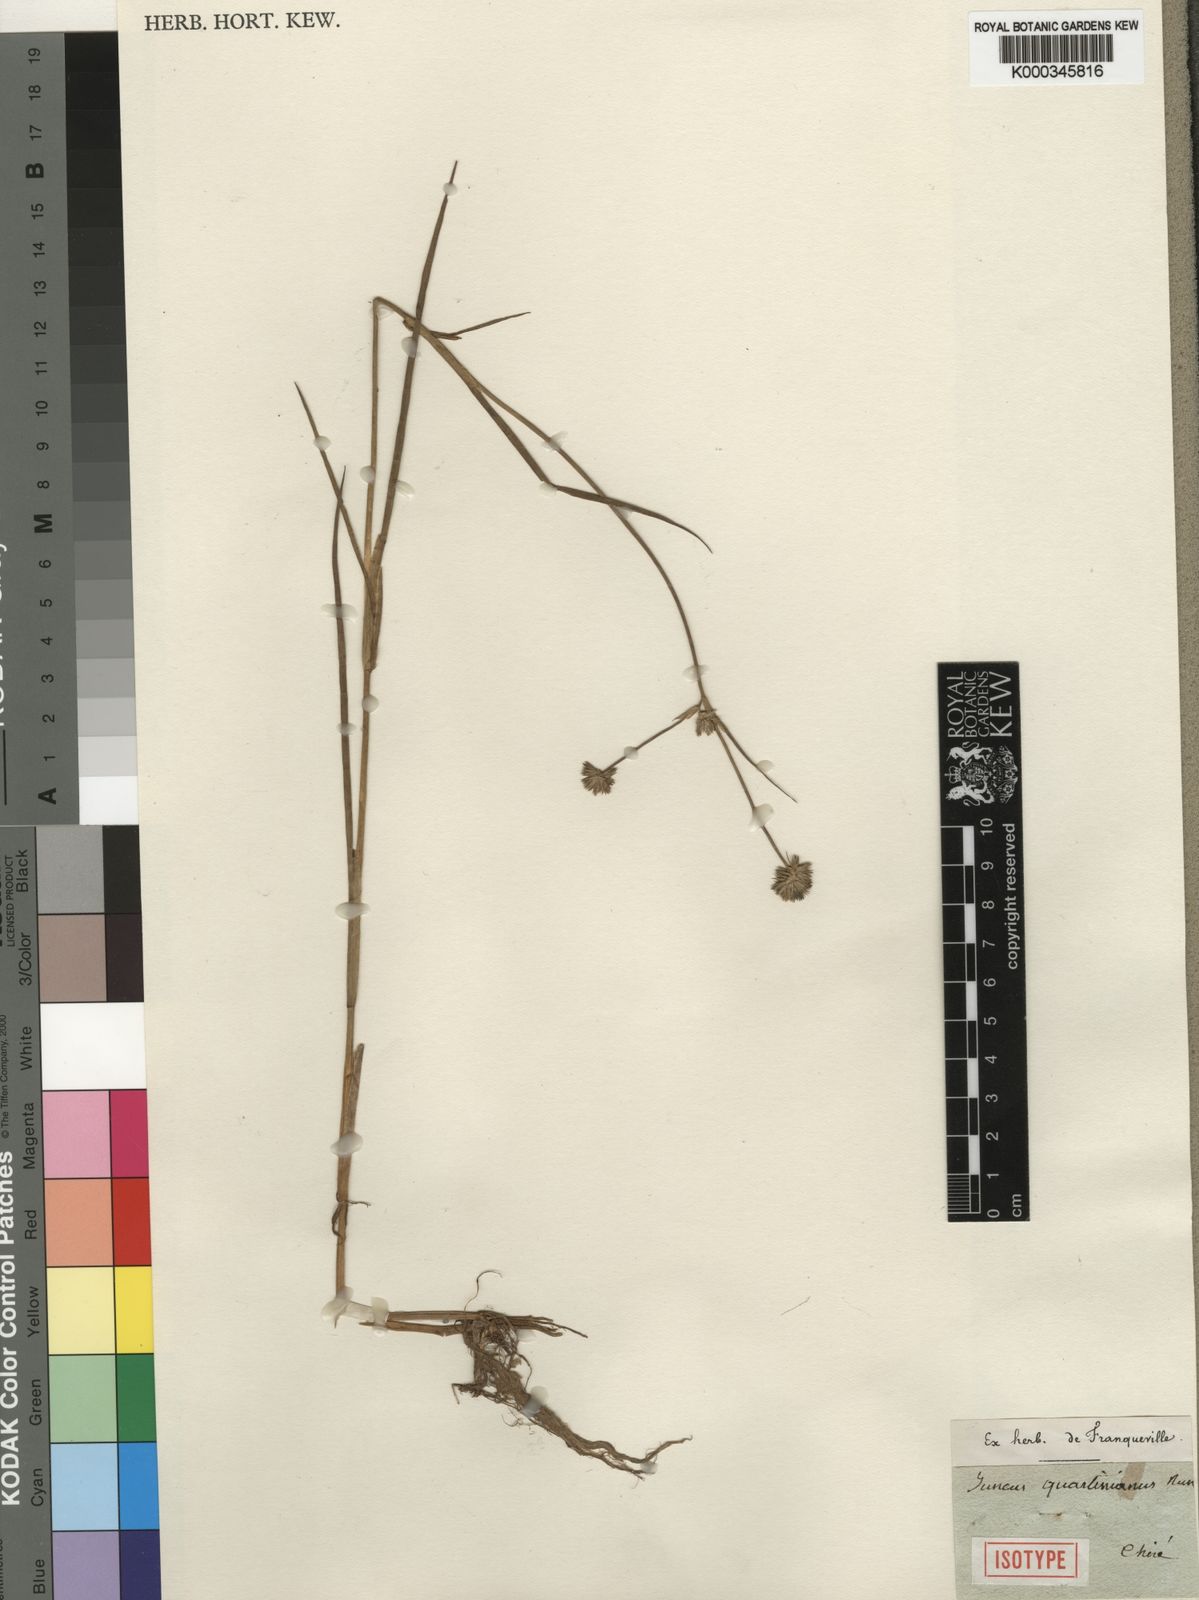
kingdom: Plantae
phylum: Tracheophyta
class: Liliopsida
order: Poales
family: Juncaceae
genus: Juncus
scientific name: Juncus oxycarpus
